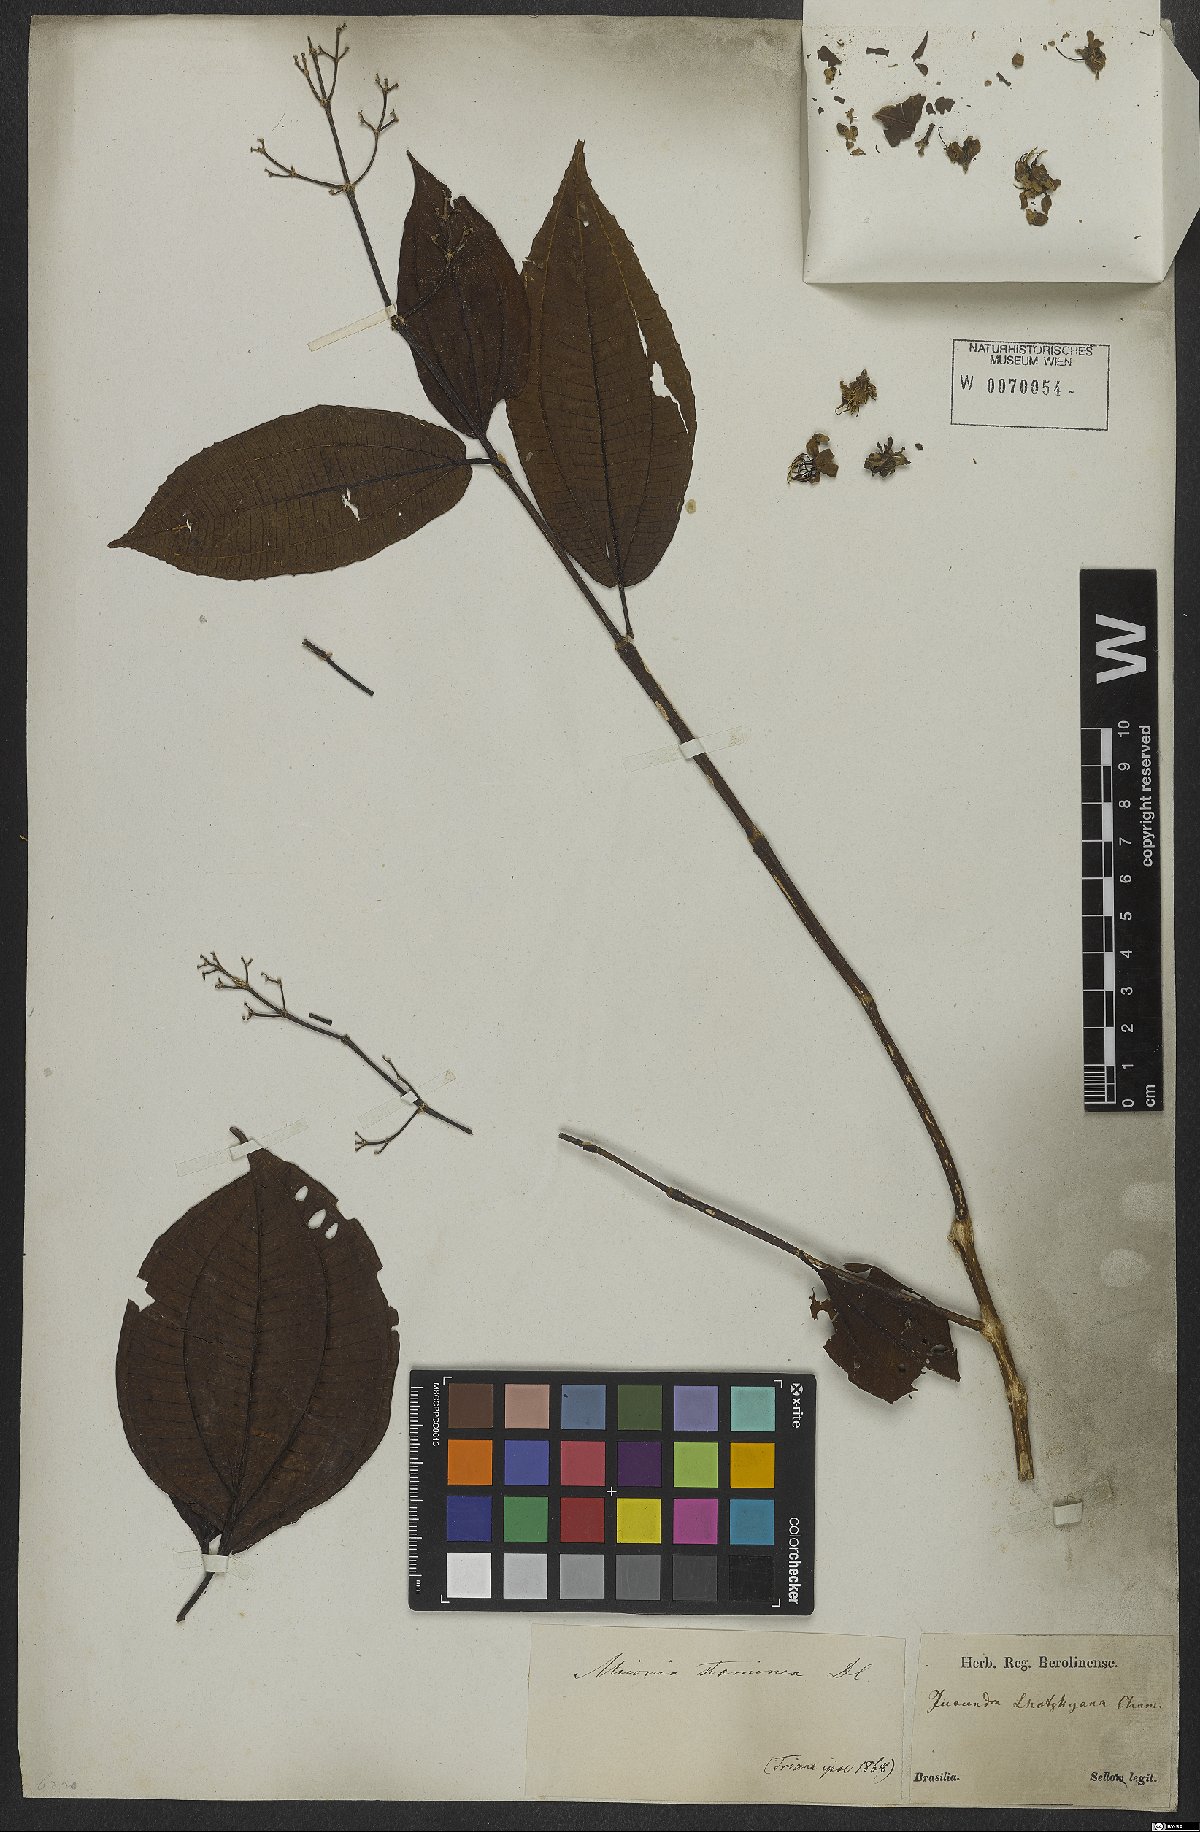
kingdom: Plantae
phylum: Tracheophyta
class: Magnoliopsida
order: Myrtales
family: Melastomataceae
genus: Miconia
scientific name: Miconia staminea
